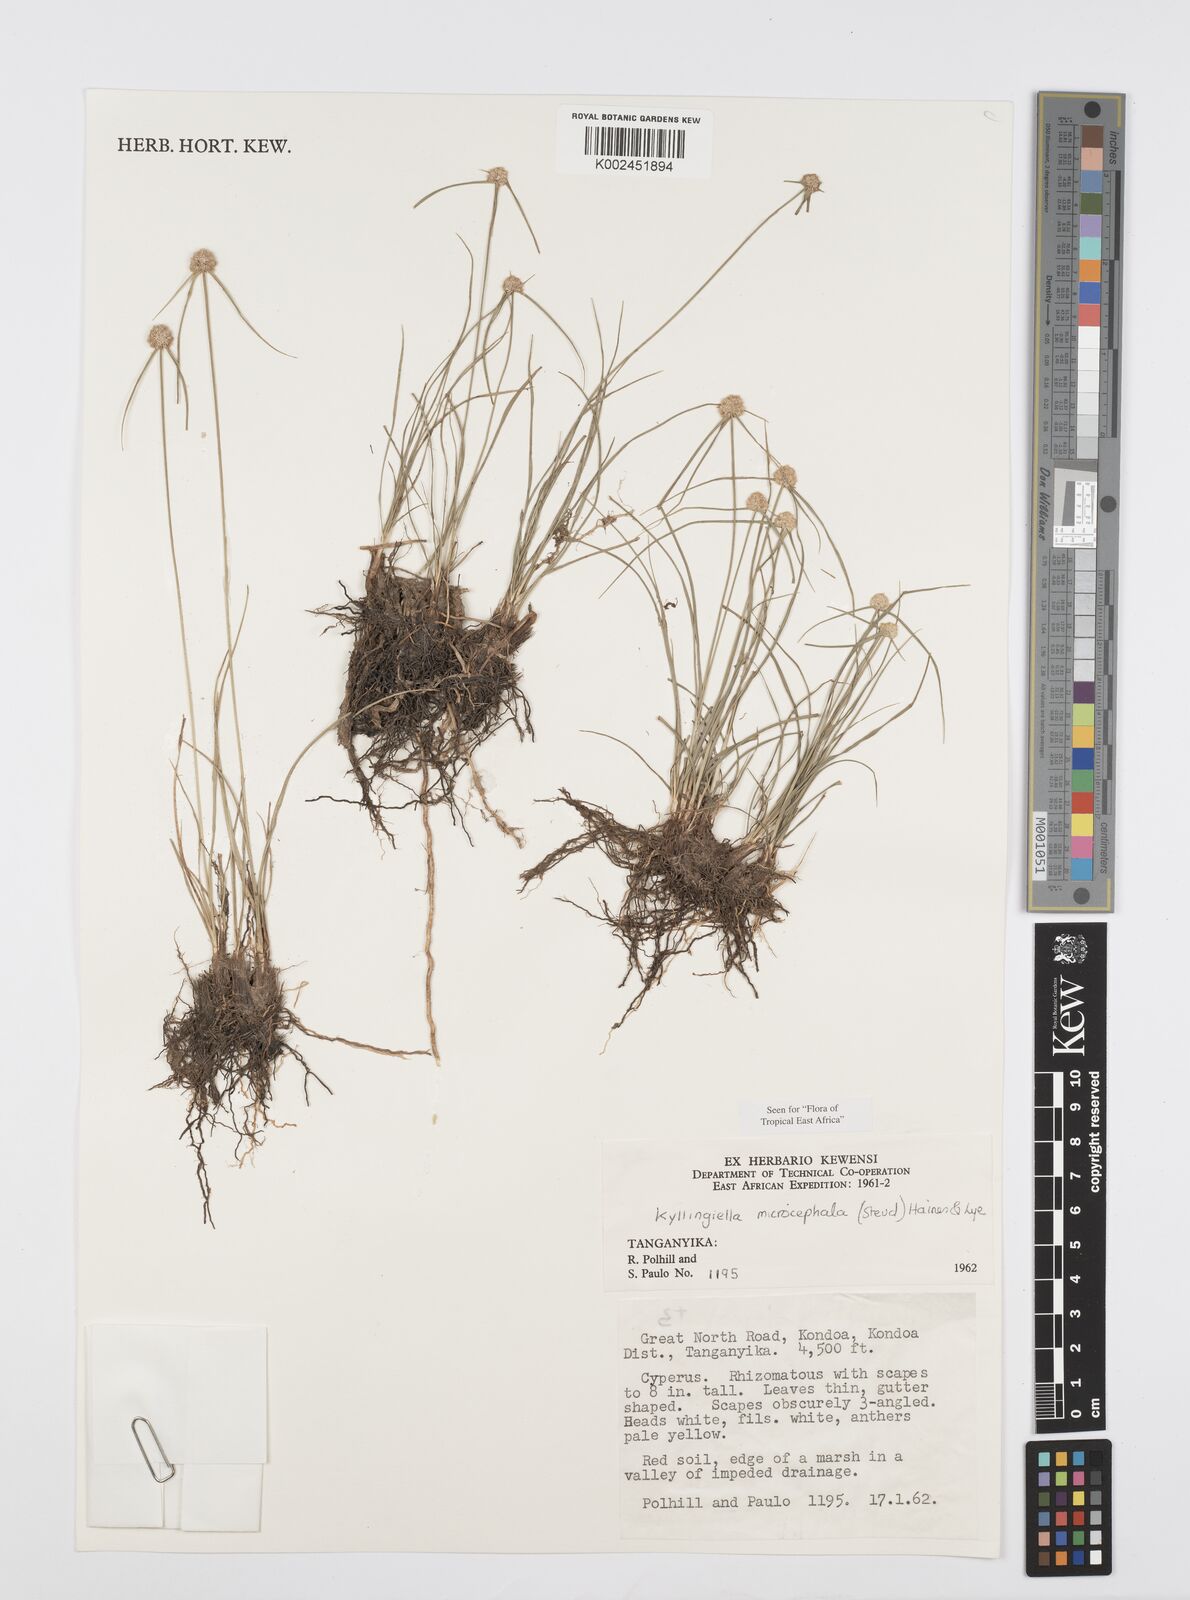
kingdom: Plantae
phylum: Tracheophyta
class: Liliopsida
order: Poales
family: Cyperaceae
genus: Cyperus
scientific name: Cyperus microcephalus
